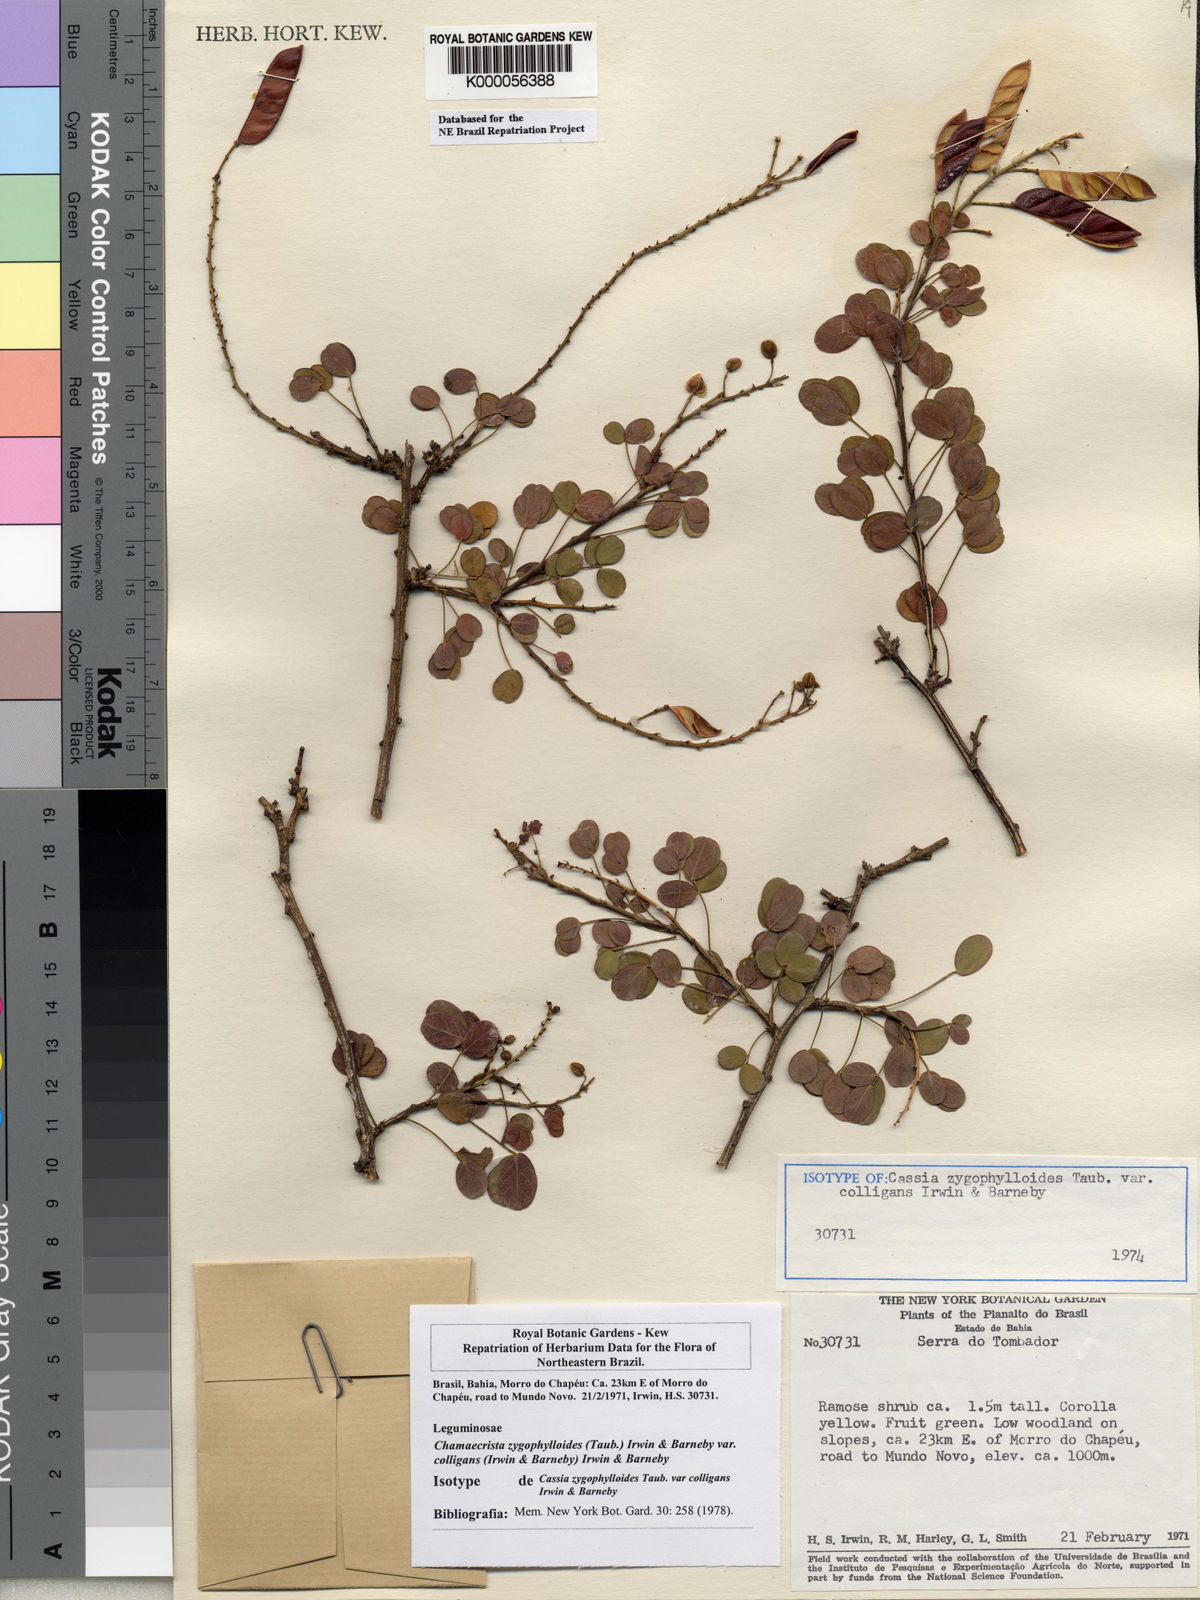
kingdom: Plantae
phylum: Tracheophyta
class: Magnoliopsida
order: Fabales
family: Fabaceae
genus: Chamaecrista
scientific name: Chamaecrista zygophylloides
